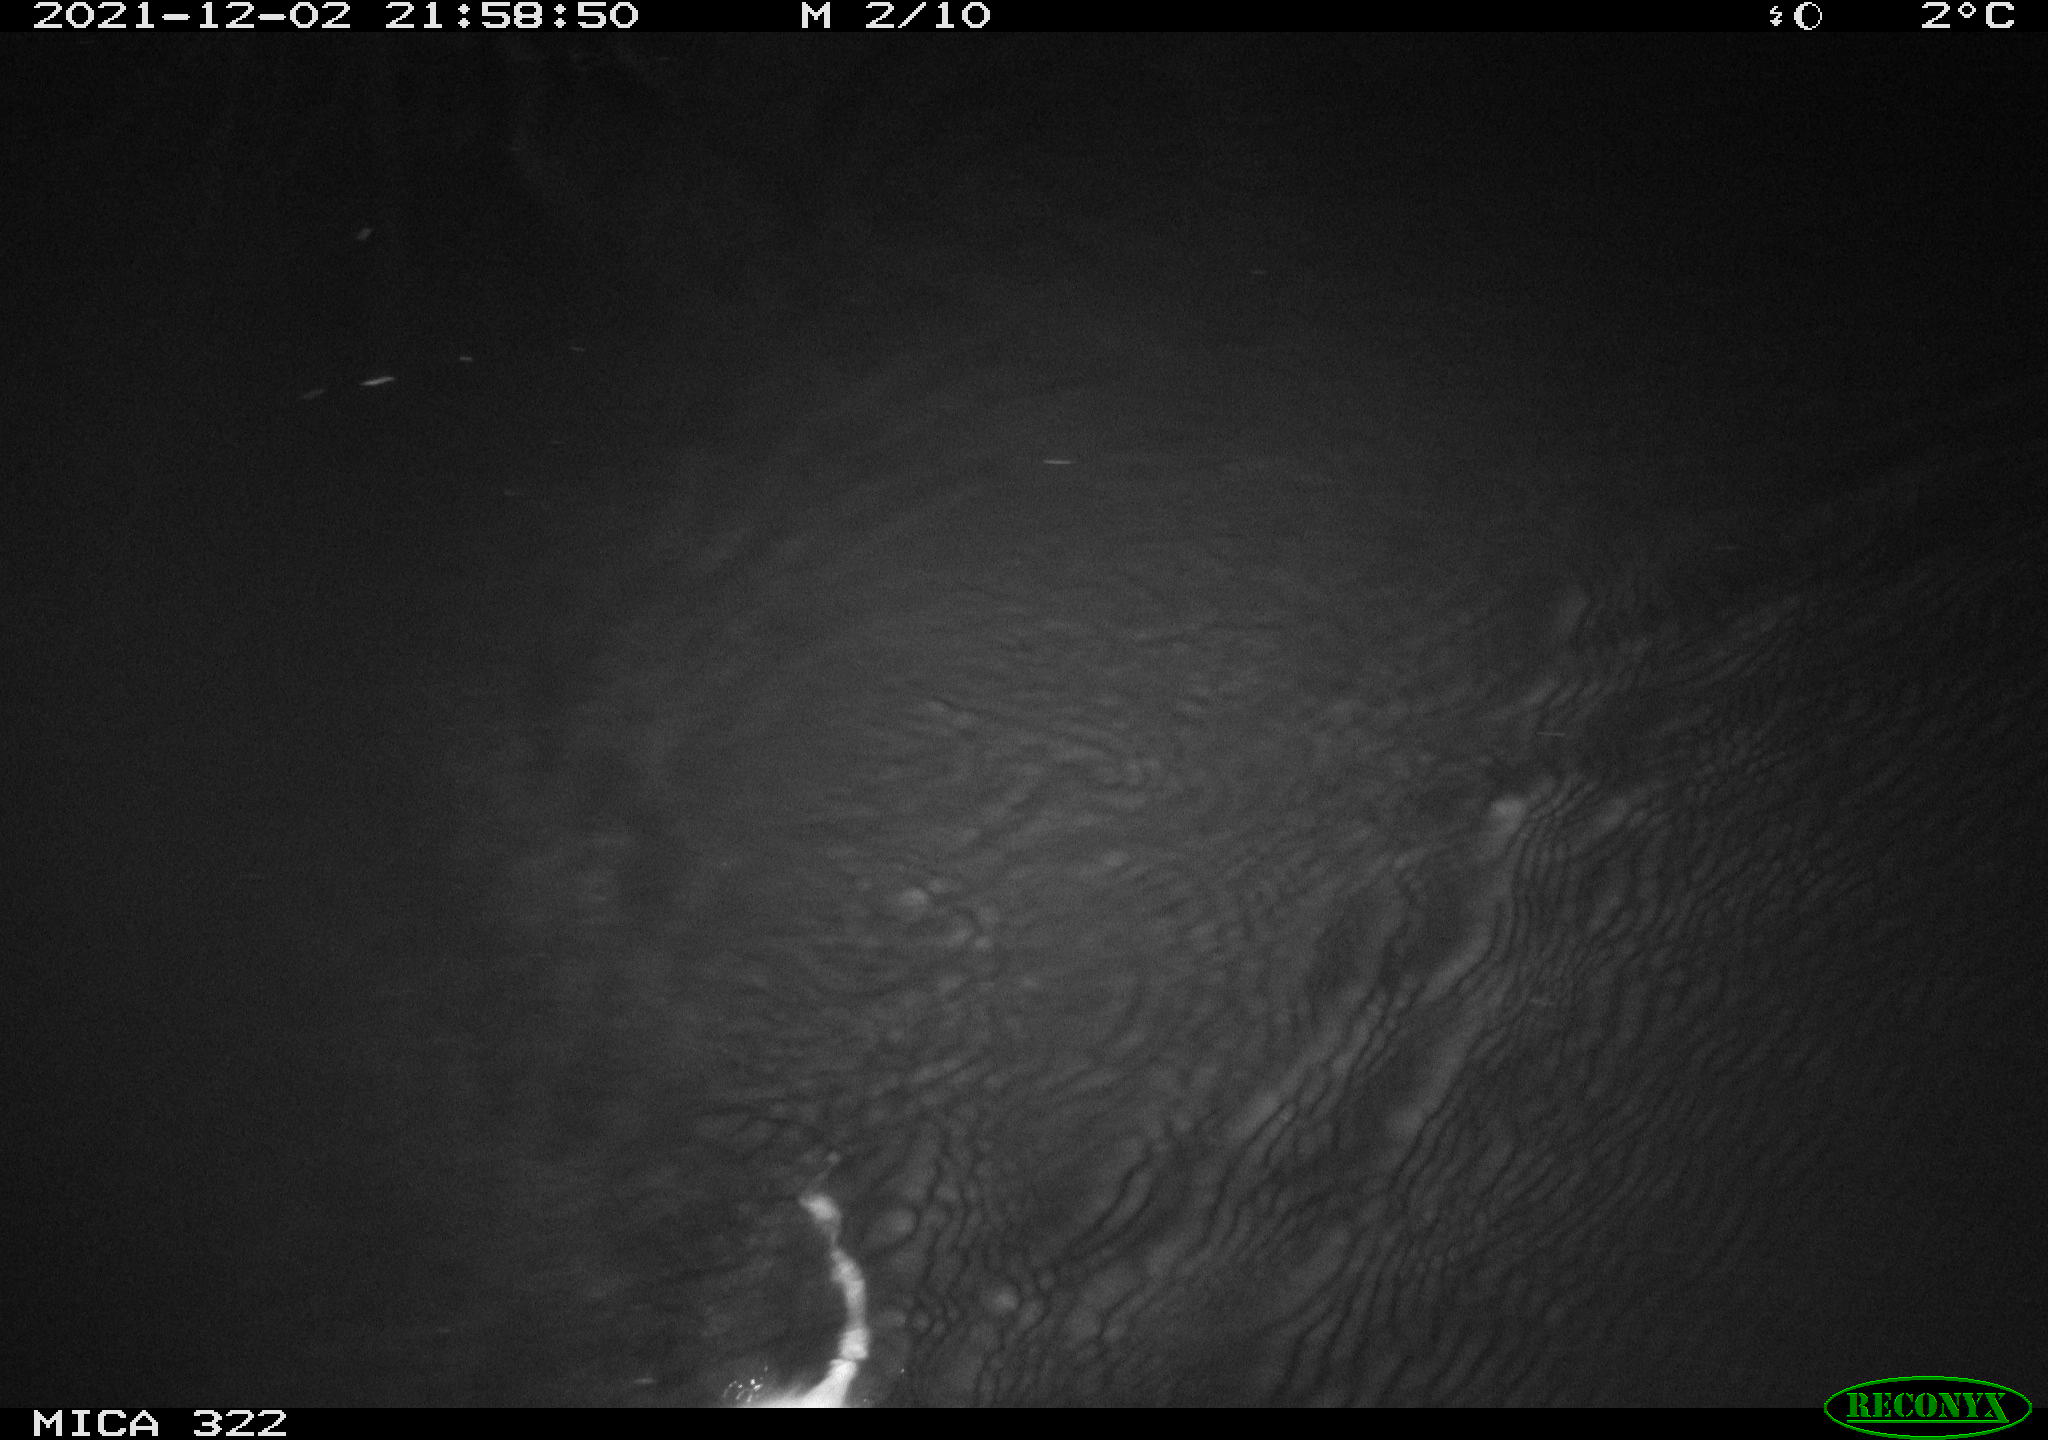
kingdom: Animalia
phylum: Chordata
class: Mammalia
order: Rodentia
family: Cricetidae
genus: Ondatra
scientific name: Ondatra zibethicus
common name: Muskrat
